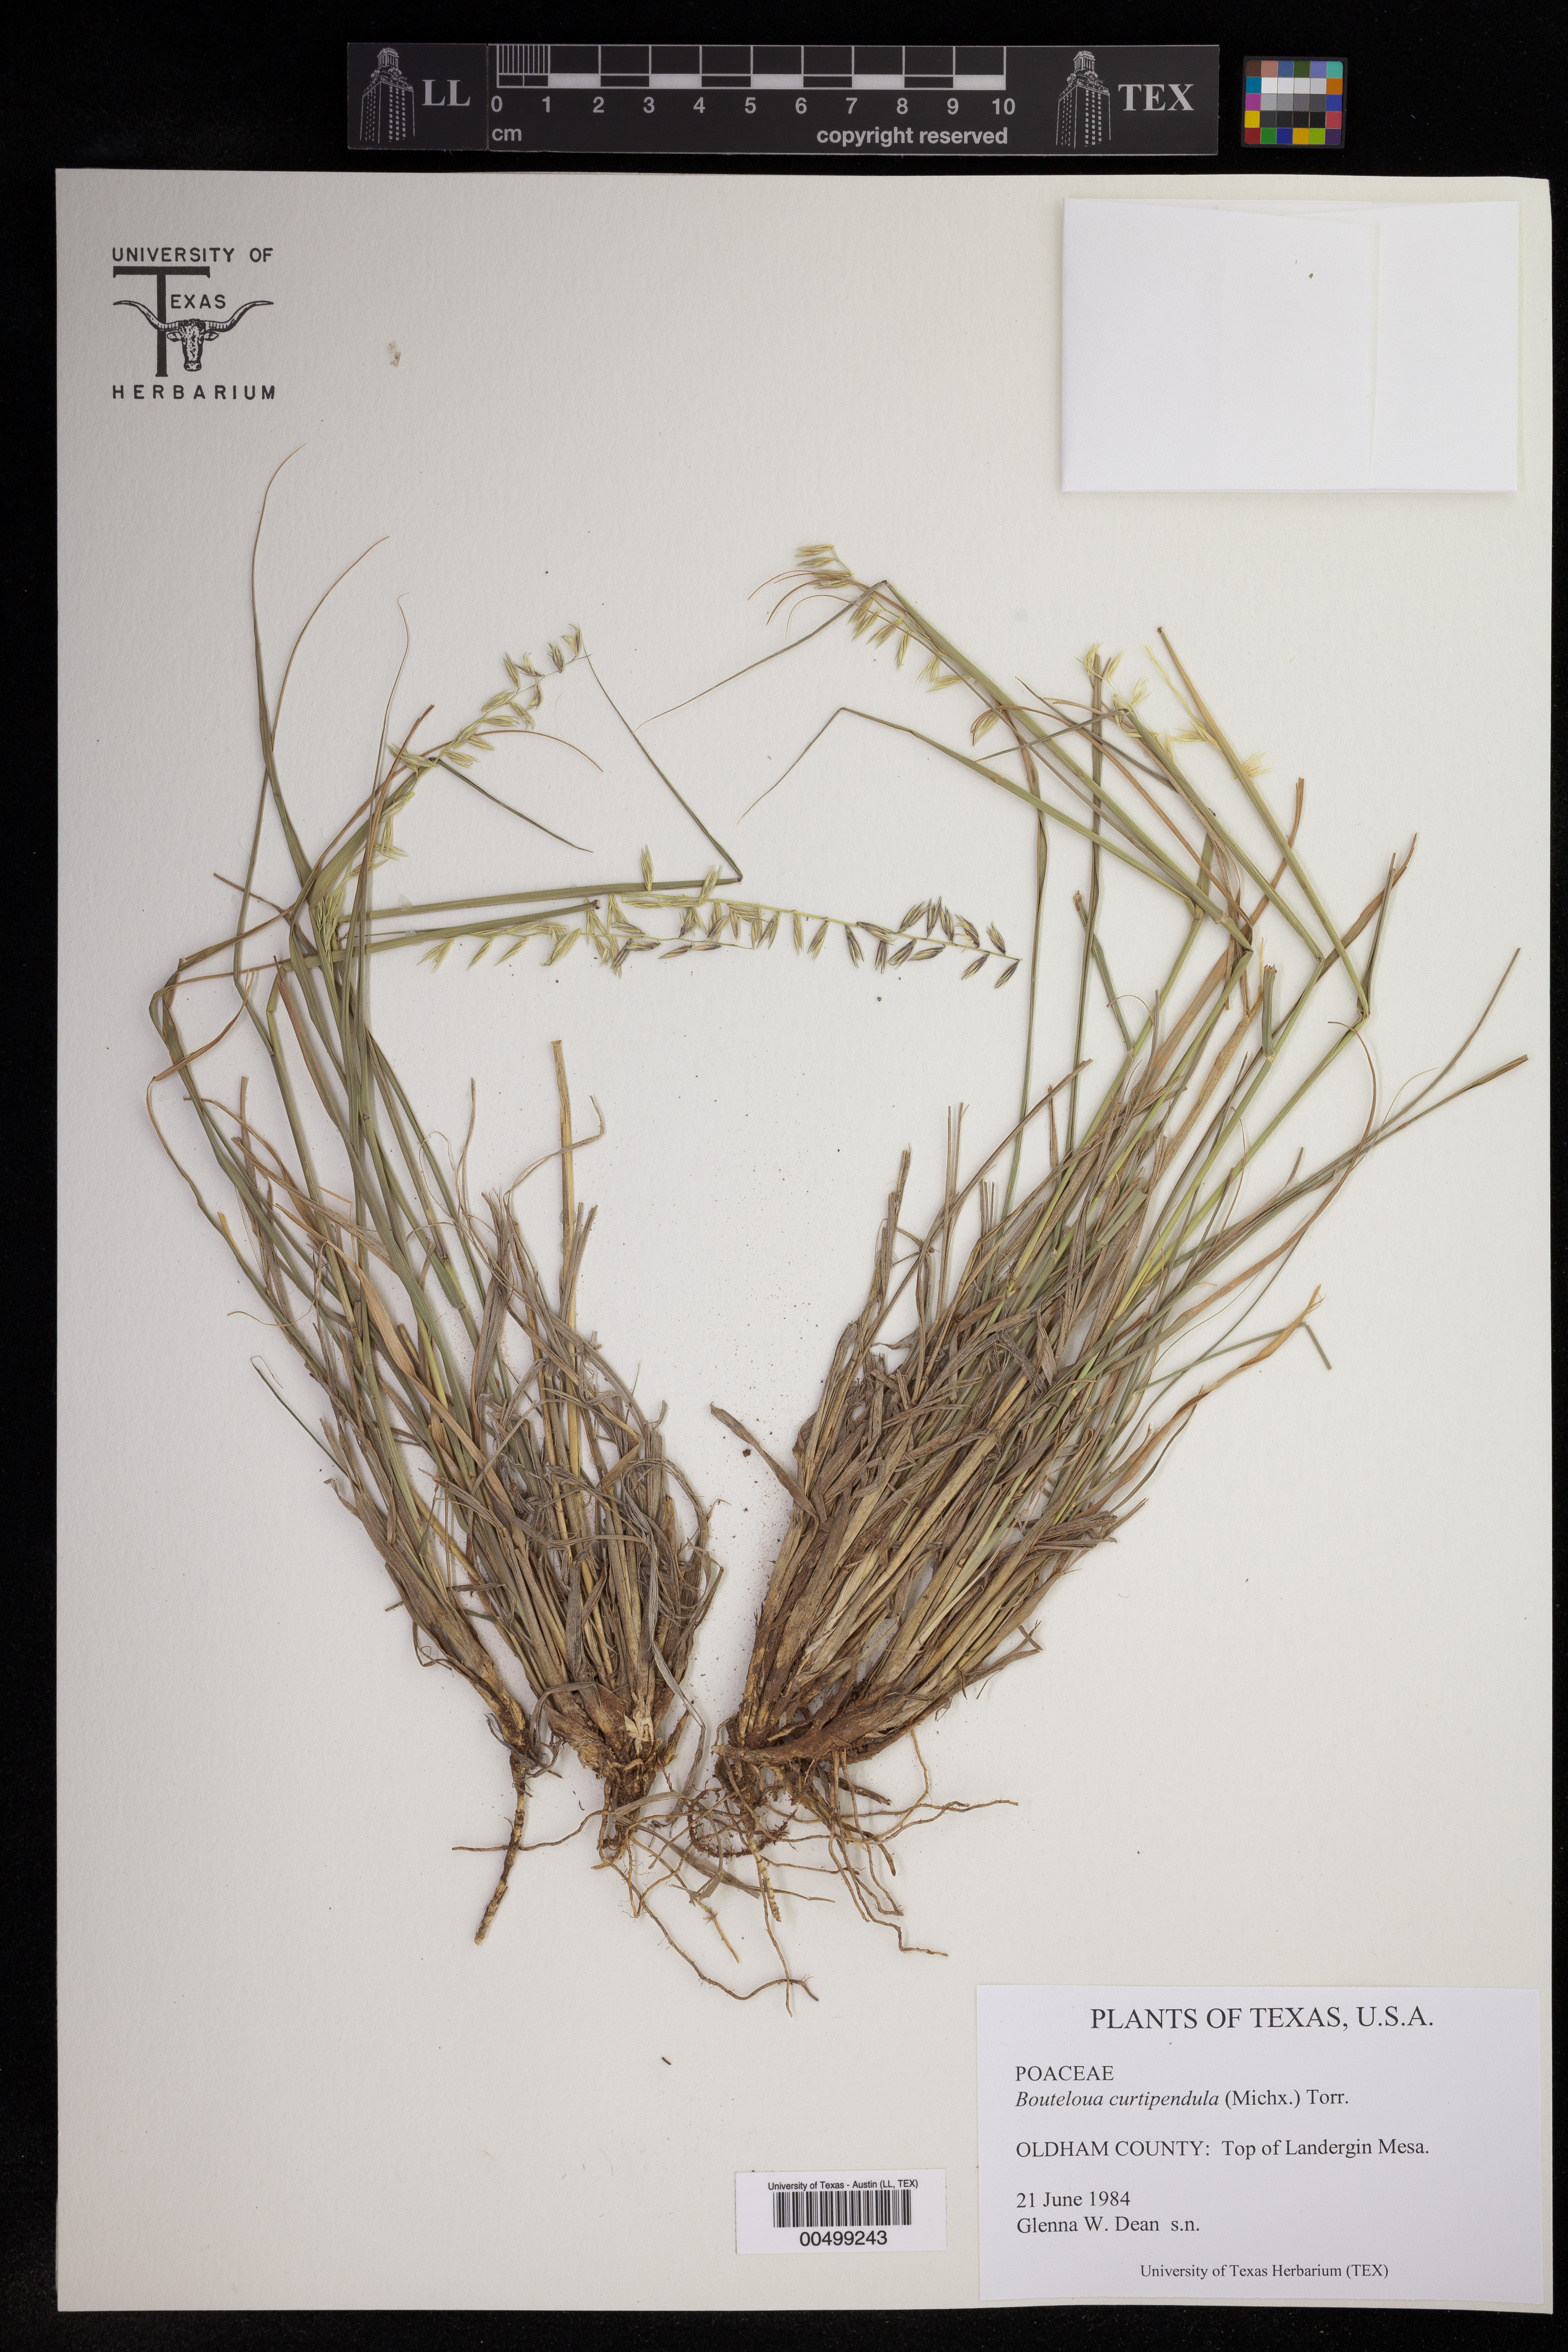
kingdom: Plantae
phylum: Tracheophyta
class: Liliopsida
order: Poales
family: Poaceae
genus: Bouteloua
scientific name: Bouteloua curtipendula
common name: Side-oats grama
